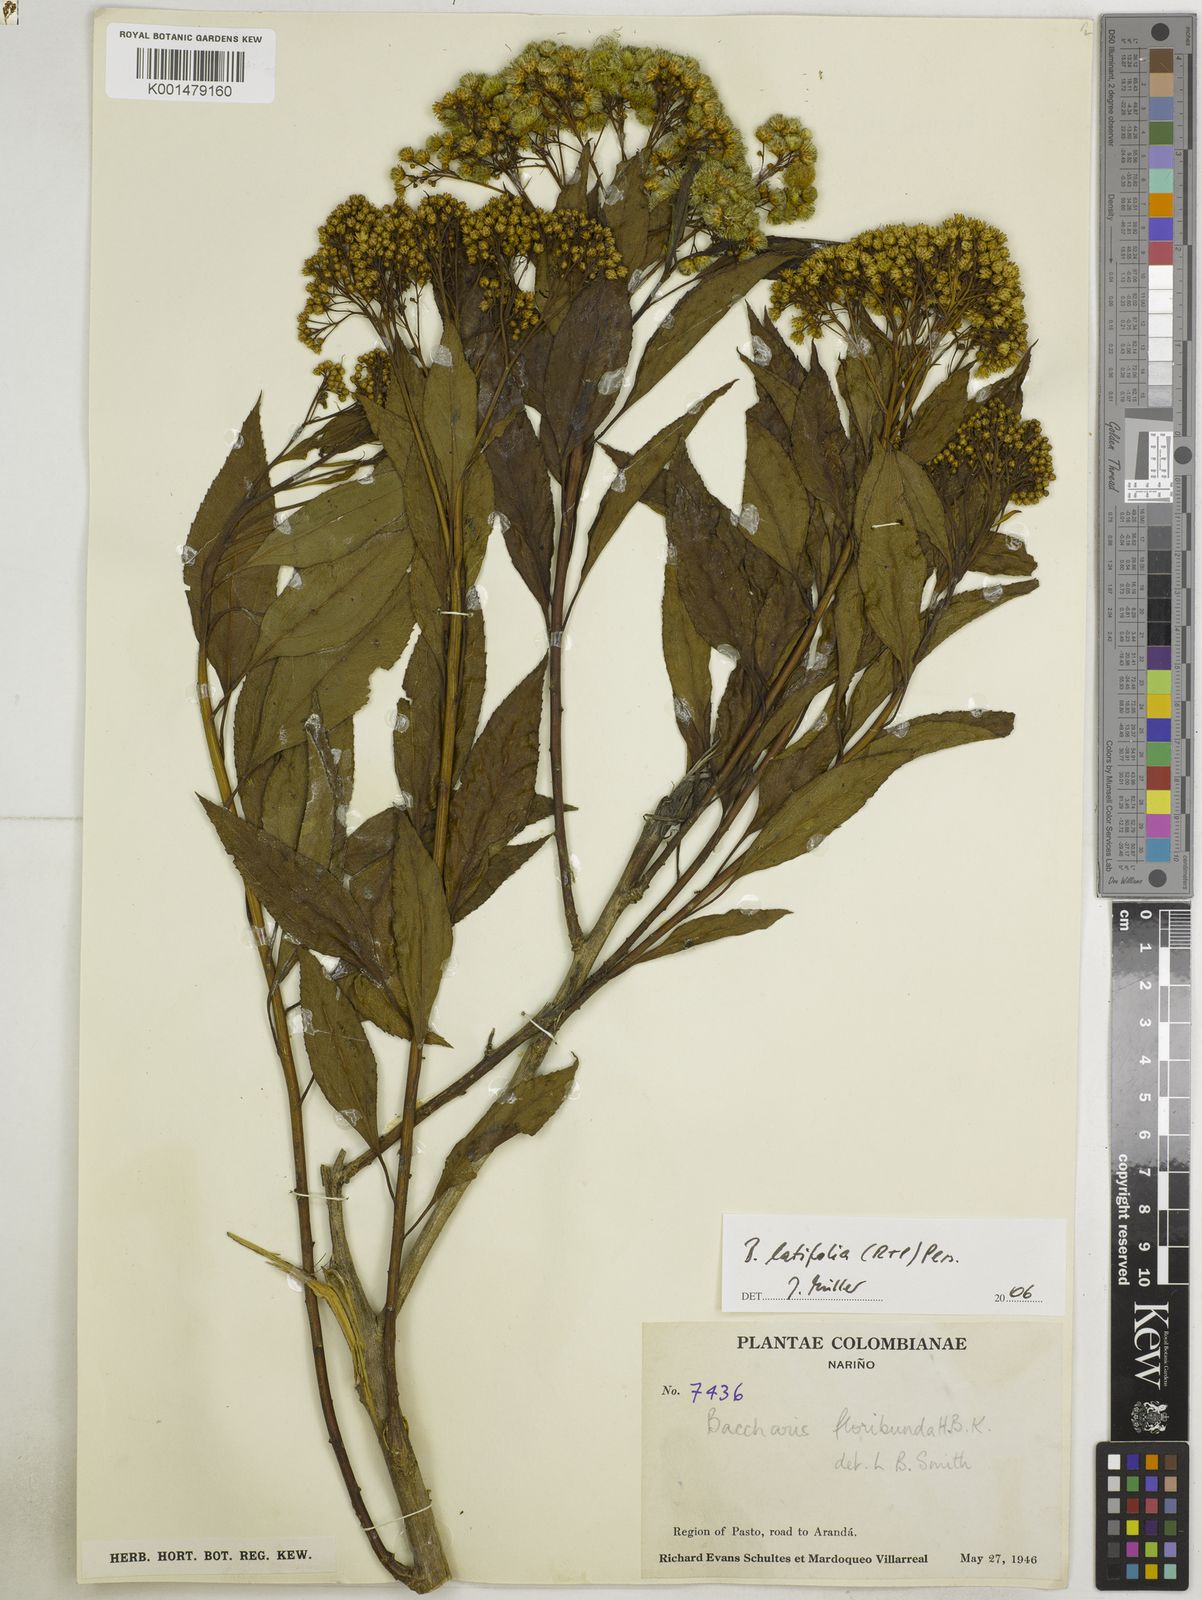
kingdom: Plantae
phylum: Tracheophyta
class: Magnoliopsida
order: Asterales
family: Asteraceae
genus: Baccharis
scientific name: Baccharis latifolia
